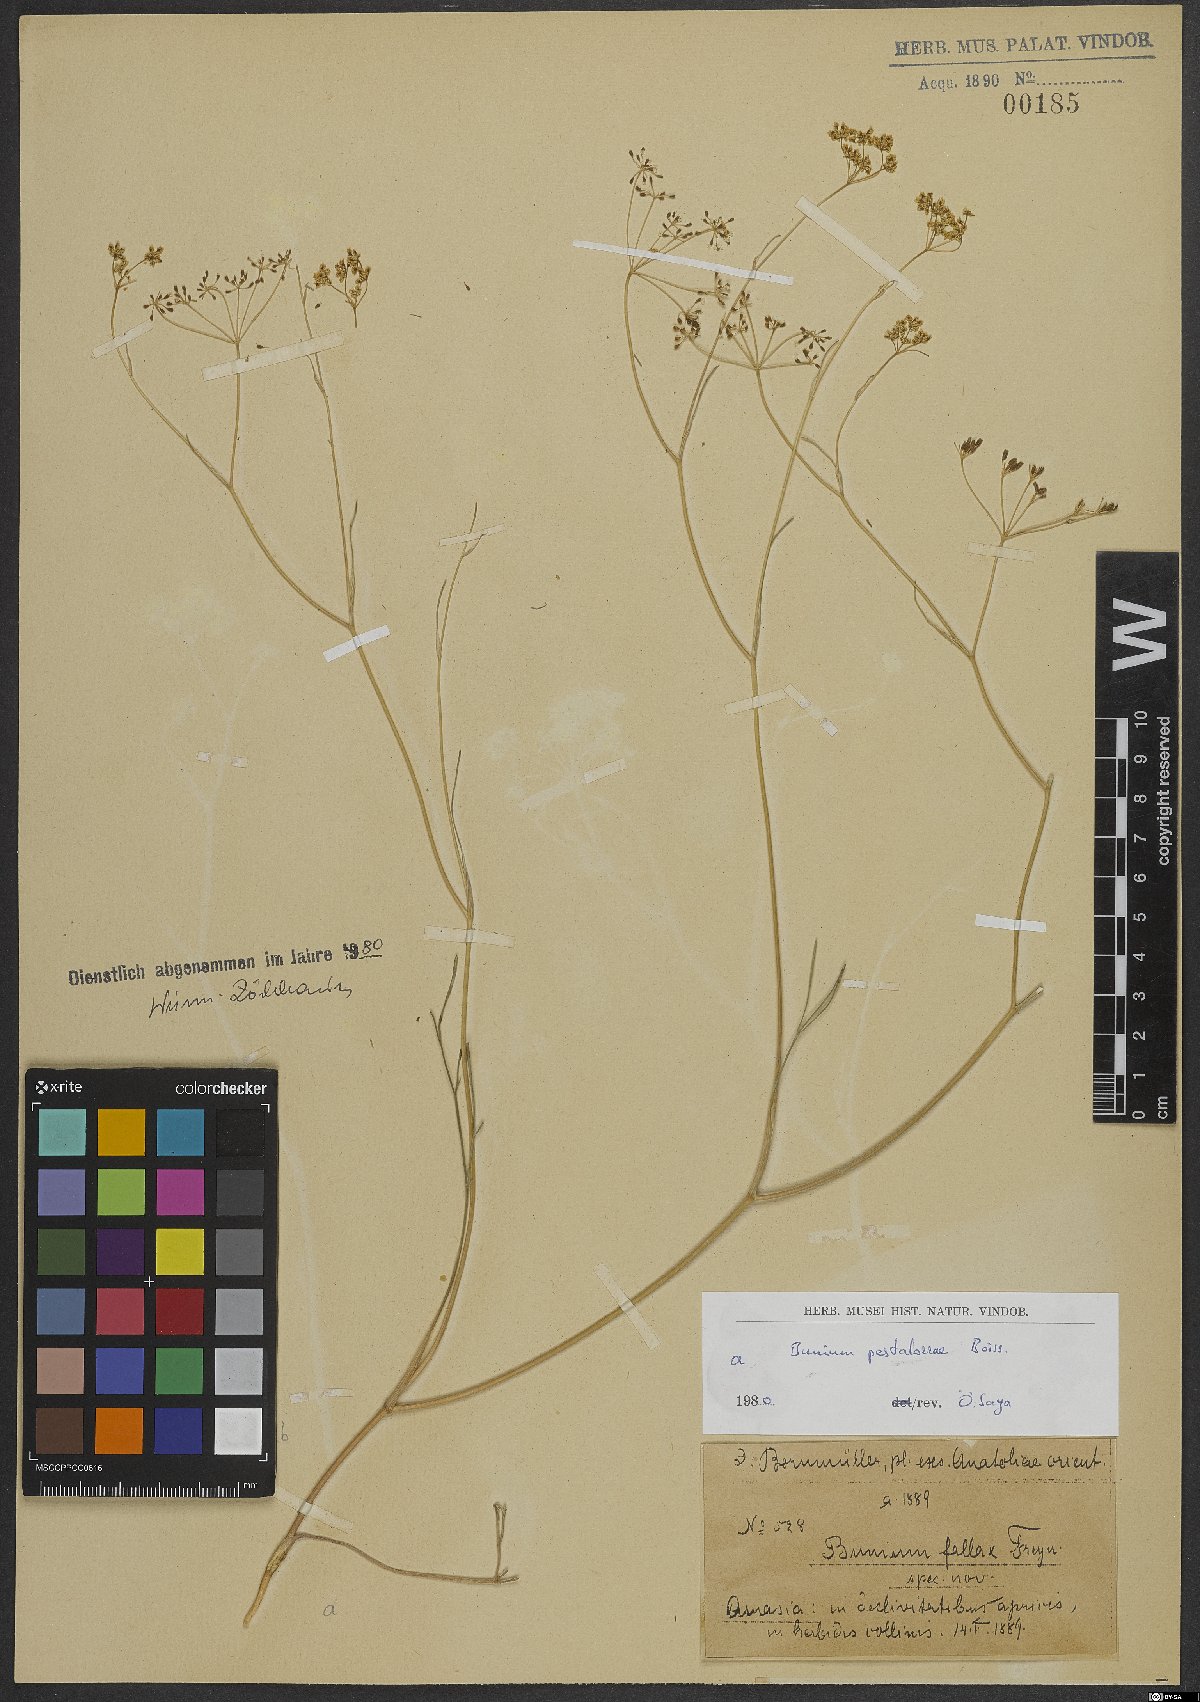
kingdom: Plantae
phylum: Tracheophyta
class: Magnoliopsida
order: Apiales
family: Apiaceae
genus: Bunium
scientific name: Bunium pestalozzae
